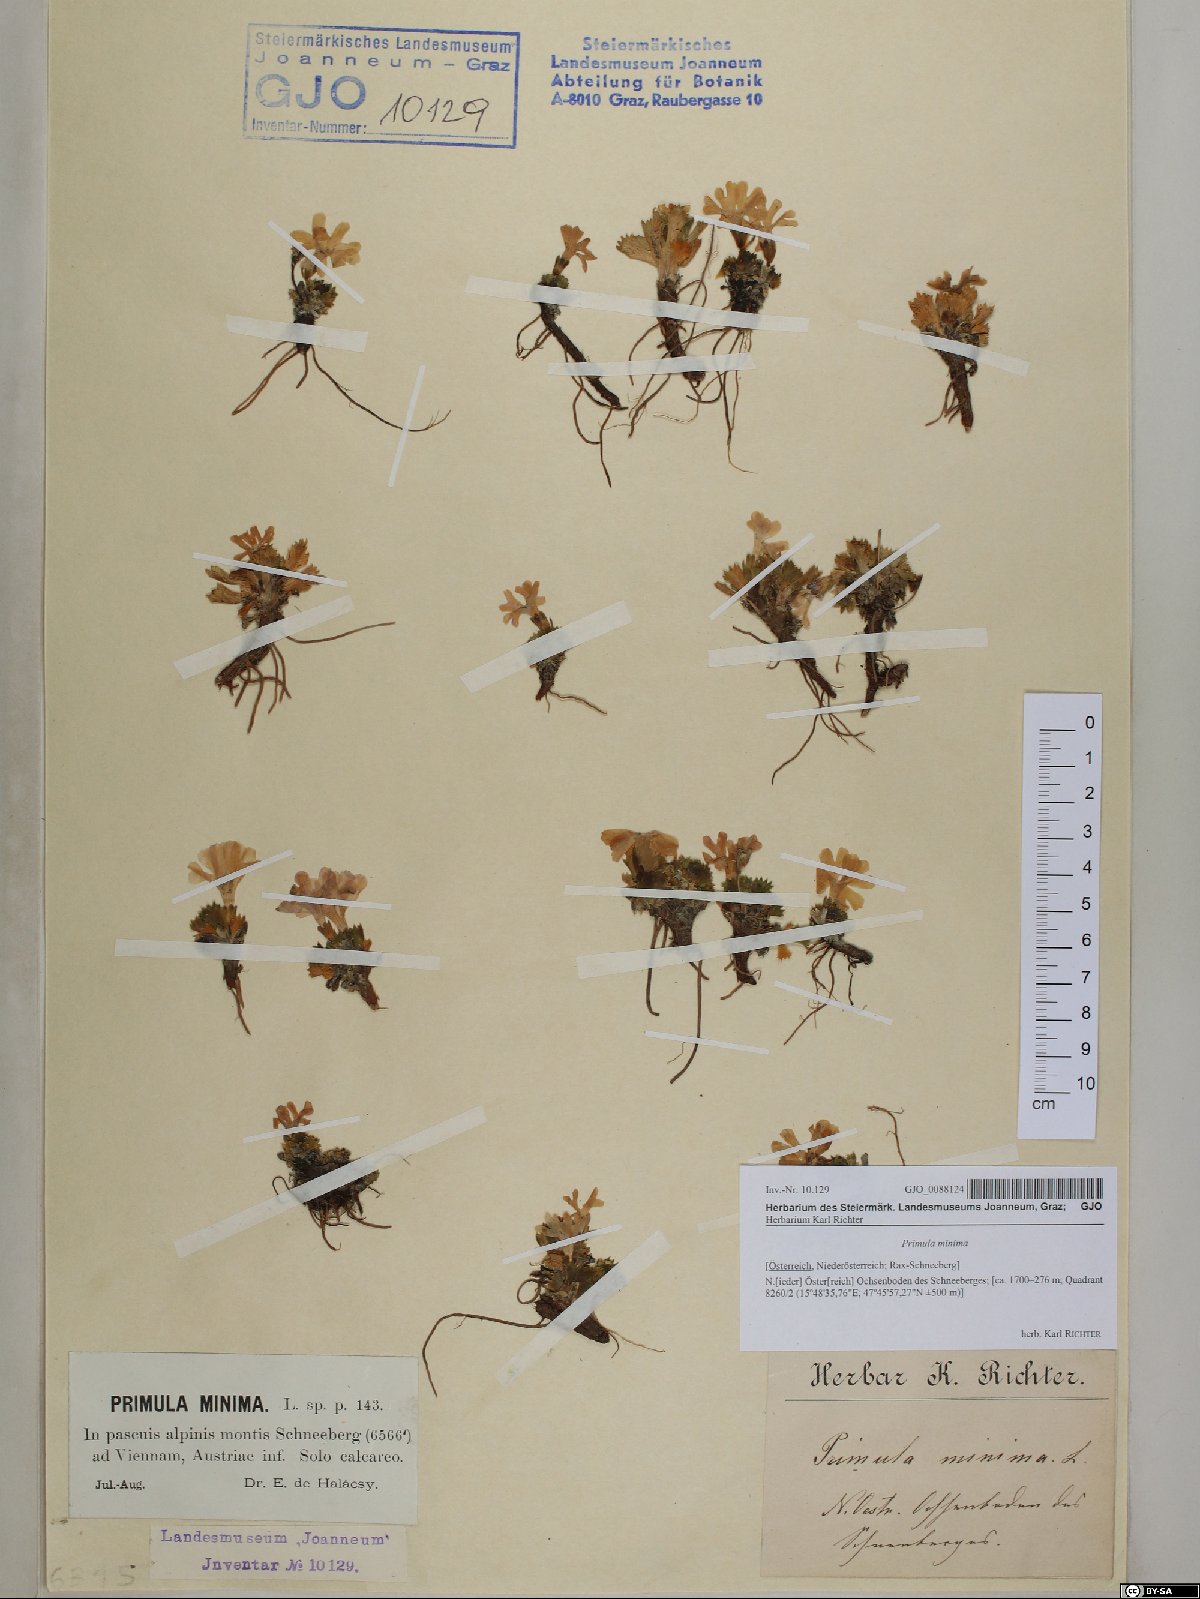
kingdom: Plantae
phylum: Tracheophyta
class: Magnoliopsida
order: Ericales
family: Primulaceae
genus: Primula
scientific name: Primula minima
